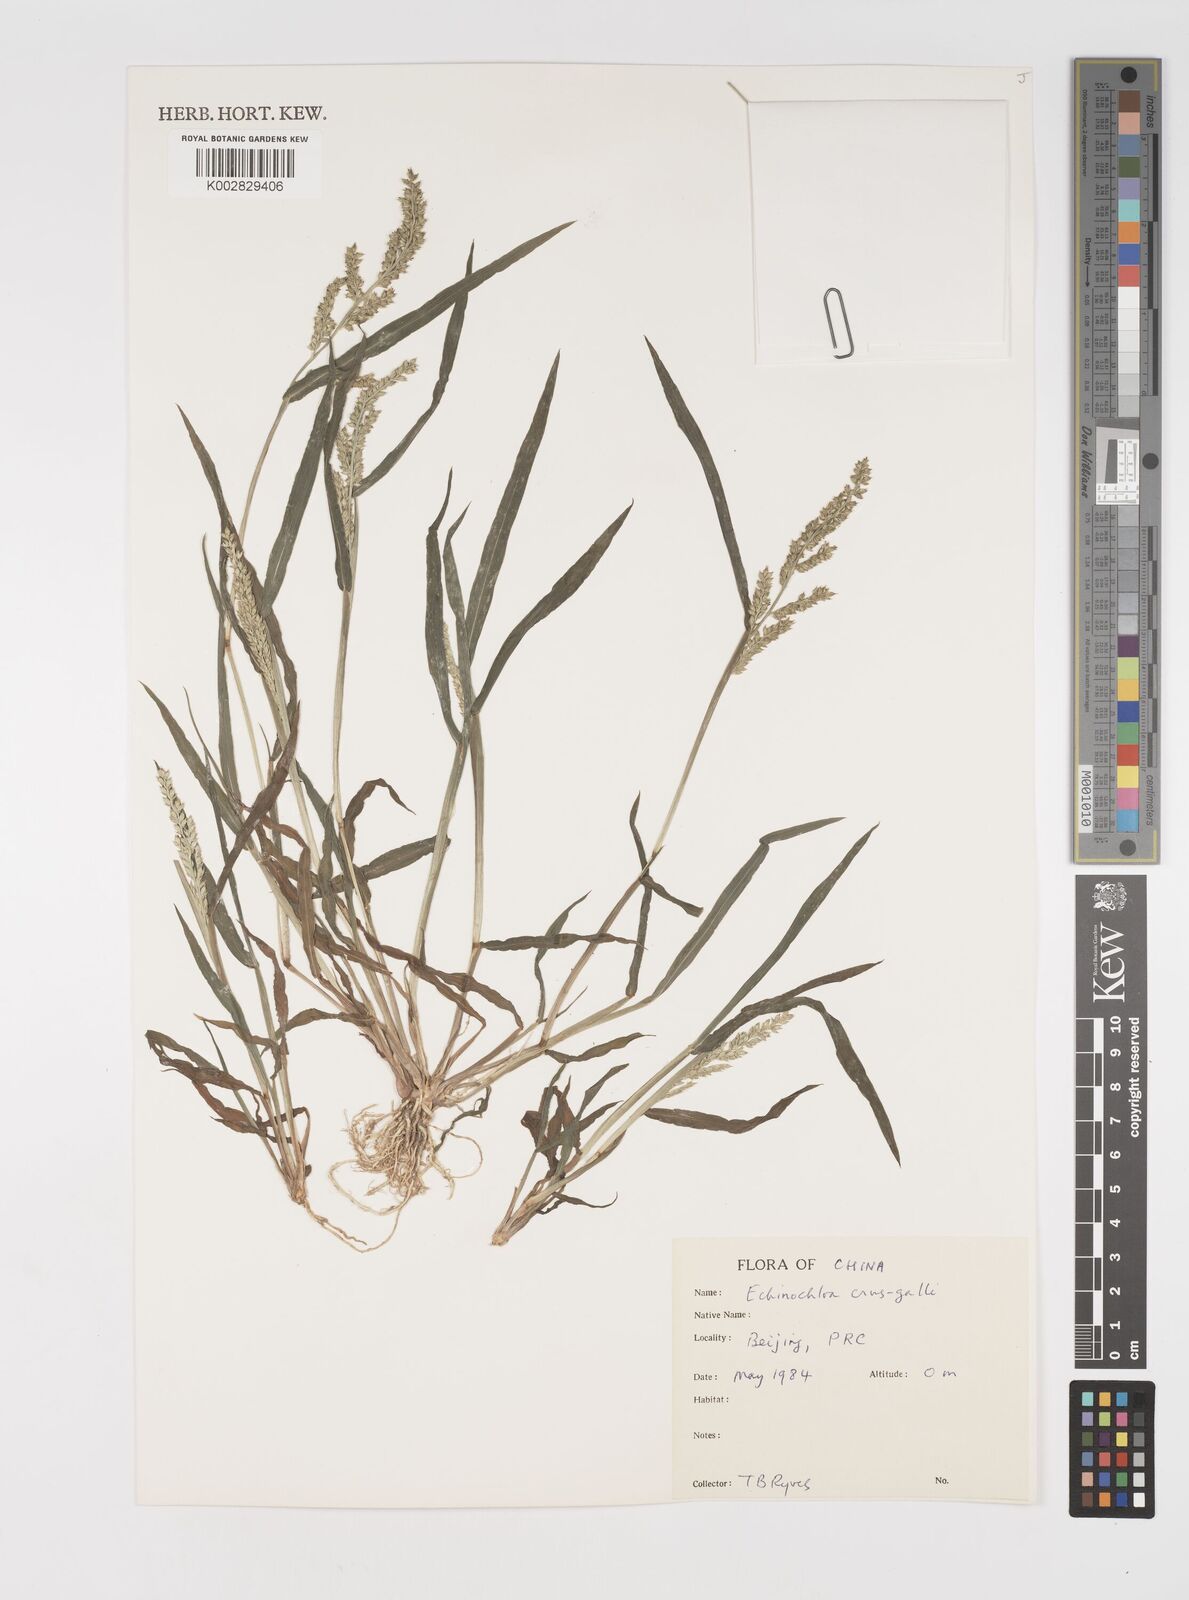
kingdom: Plantae
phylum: Tracheophyta
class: Liliopsida
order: Poales
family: Poaceae
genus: Echinochloa
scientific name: Echinochloa crus-galli
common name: Cockspur
